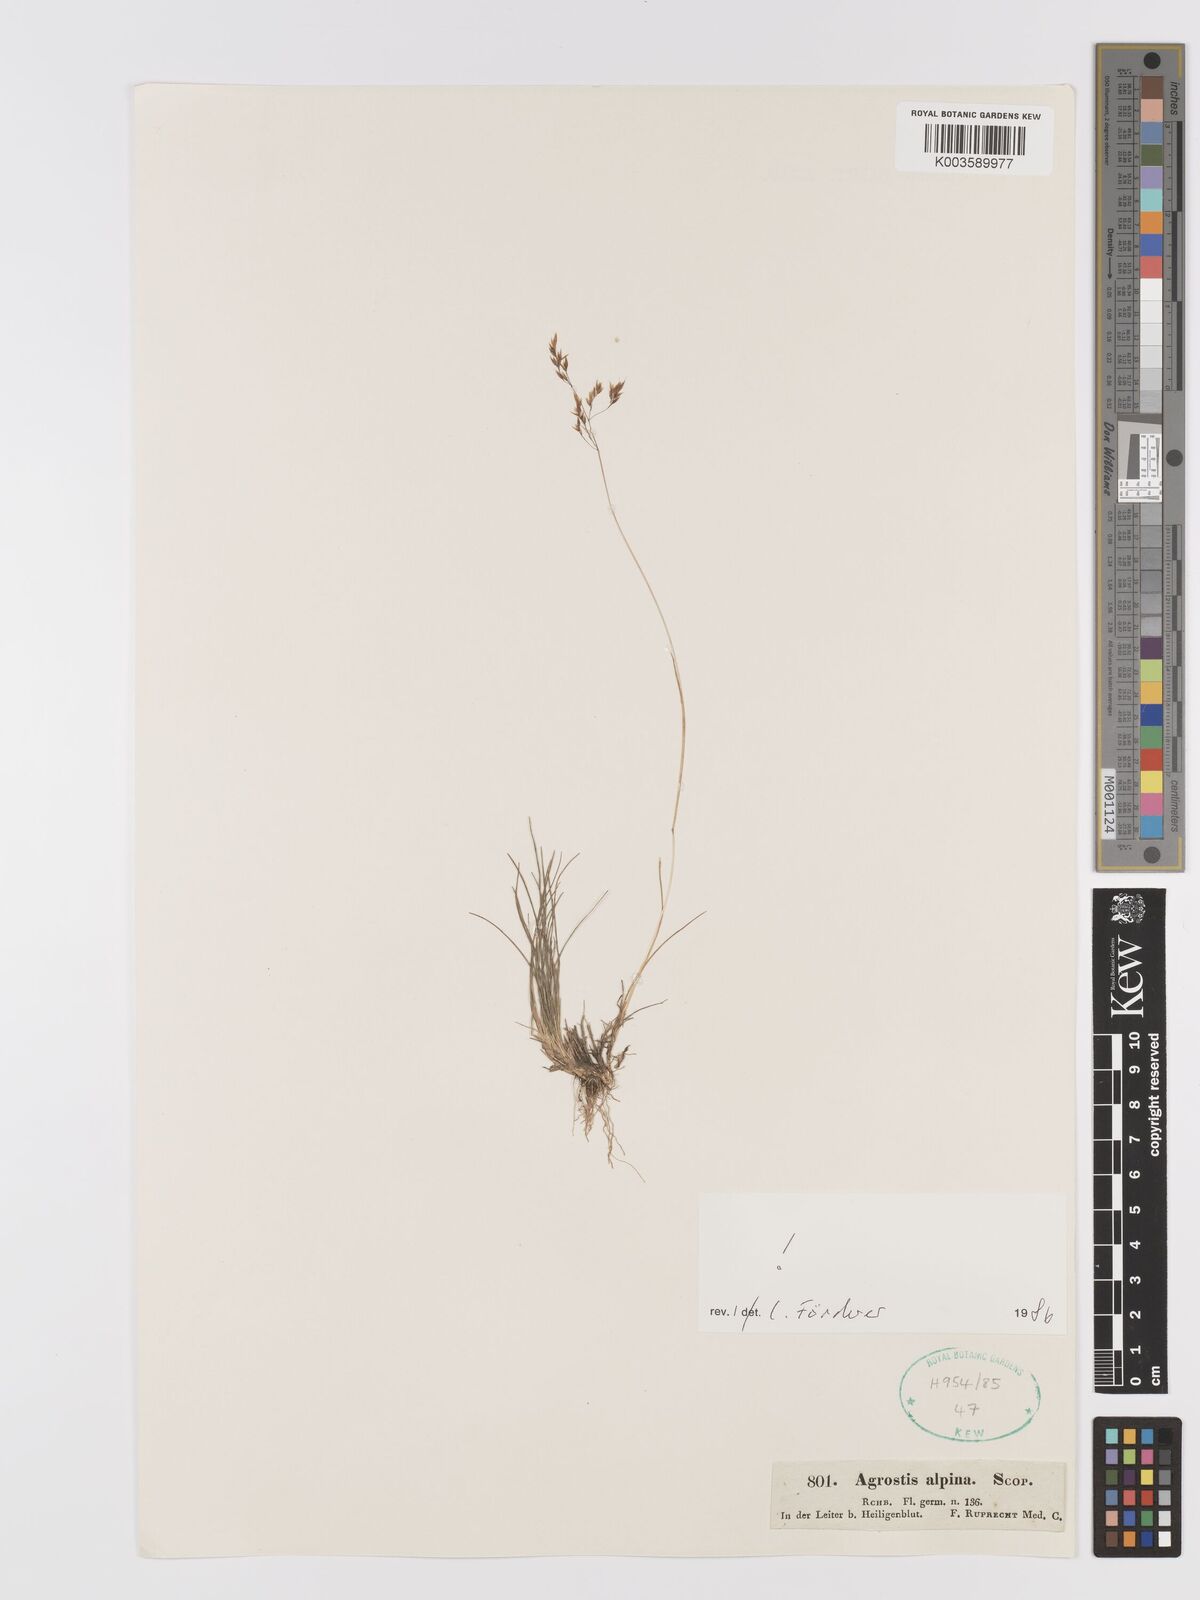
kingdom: Plantae
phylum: Tracheophyta
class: Liliopsida
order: Poales
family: Poaceae
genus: Alpagrostis
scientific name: Alpagrostis alpina
